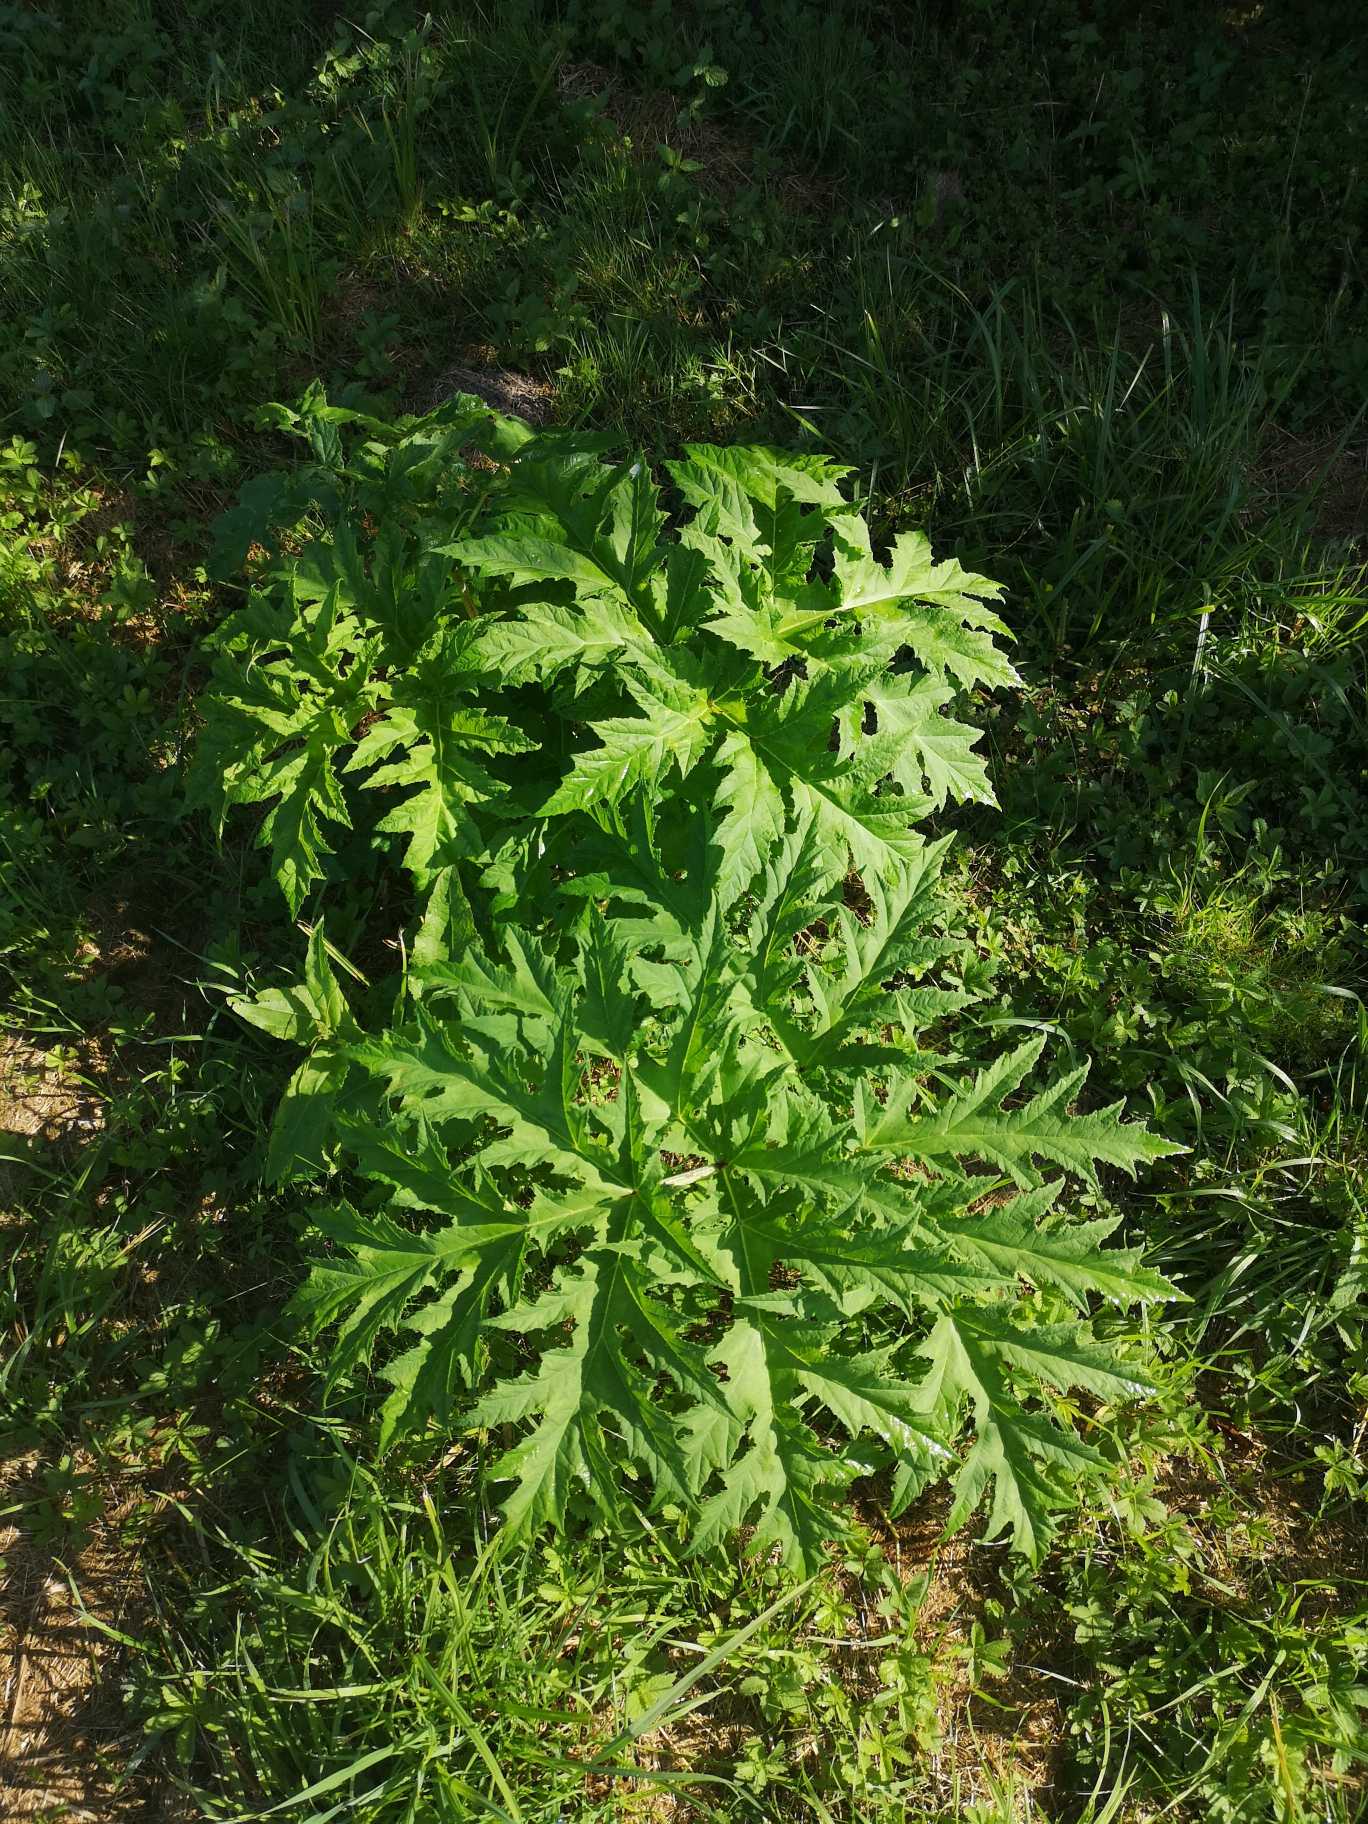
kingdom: Plantae
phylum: Tracheophyta
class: Magnoliopsida
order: Apiales
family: Apiaceae
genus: Heracleum
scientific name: Heracleum mantegazzianum
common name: Kæmpe-bjørneklo
